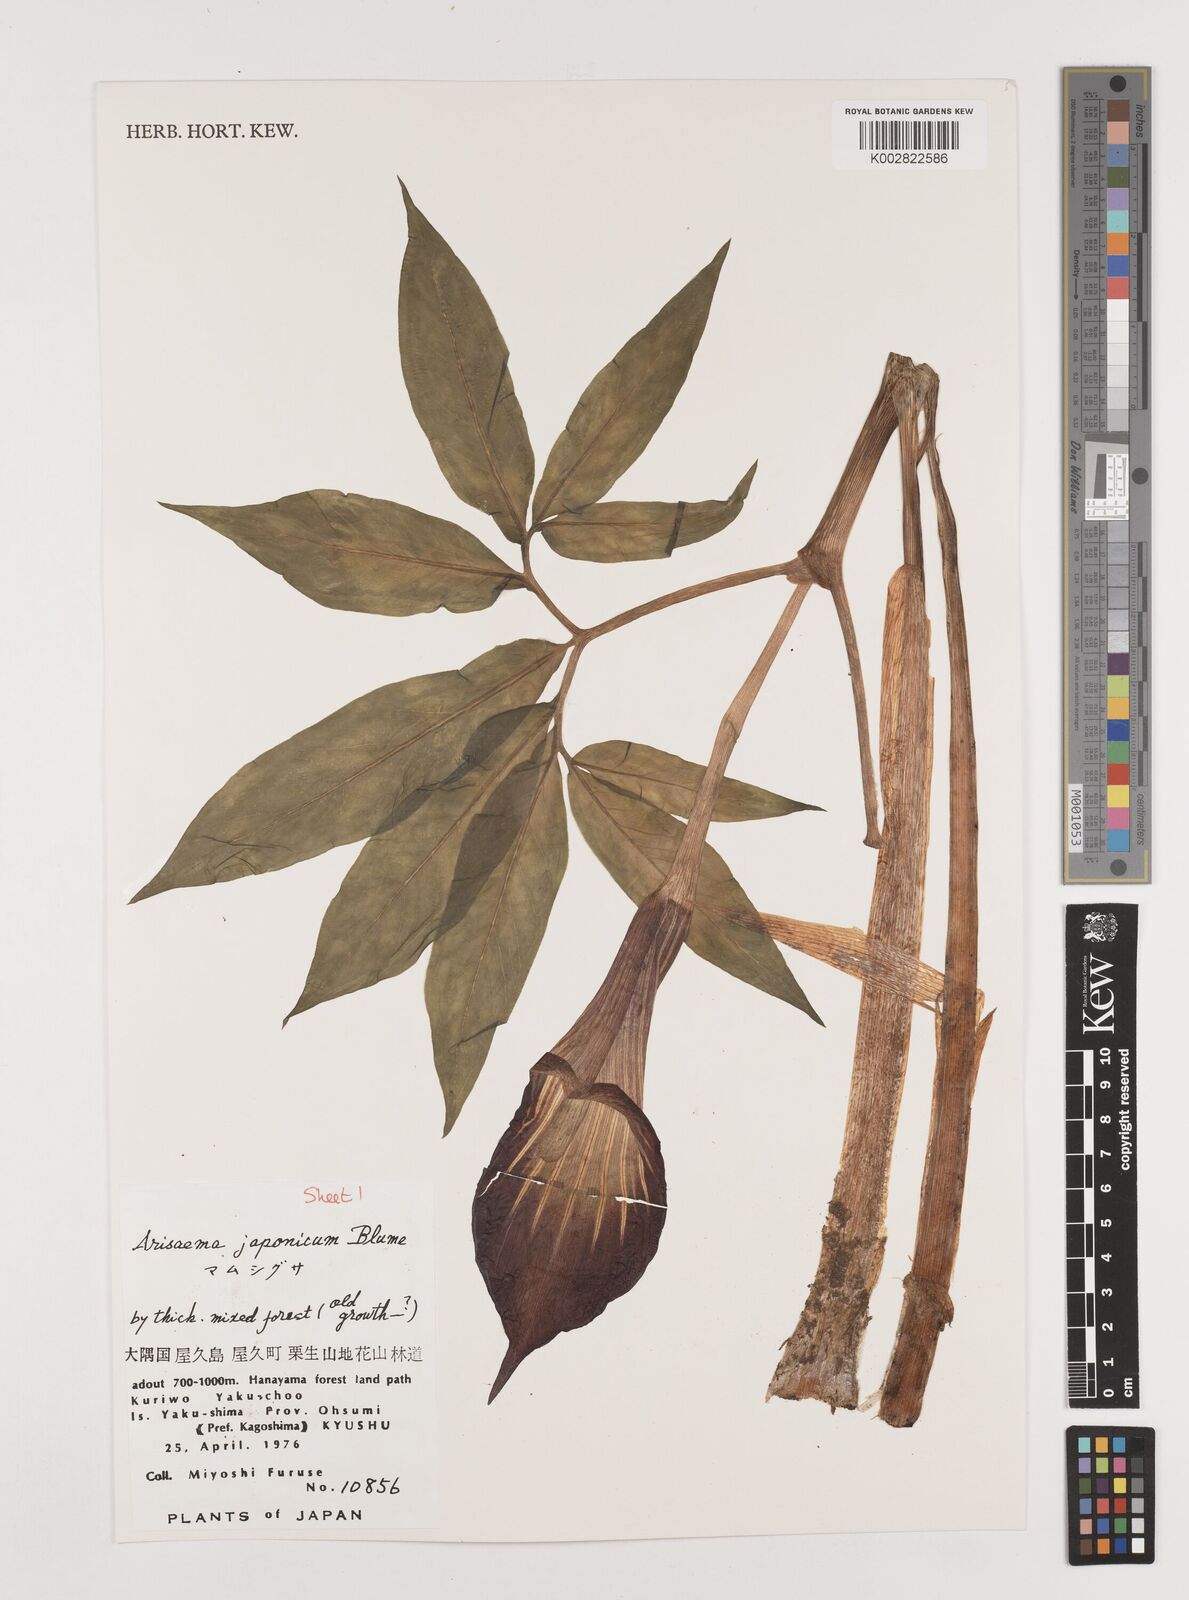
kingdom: Plantae
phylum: Tracheophyta
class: Liliopsida
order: Alismatales
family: Araceae
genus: Arisaema
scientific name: Arisaema serratum
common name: Japanese arisaema
